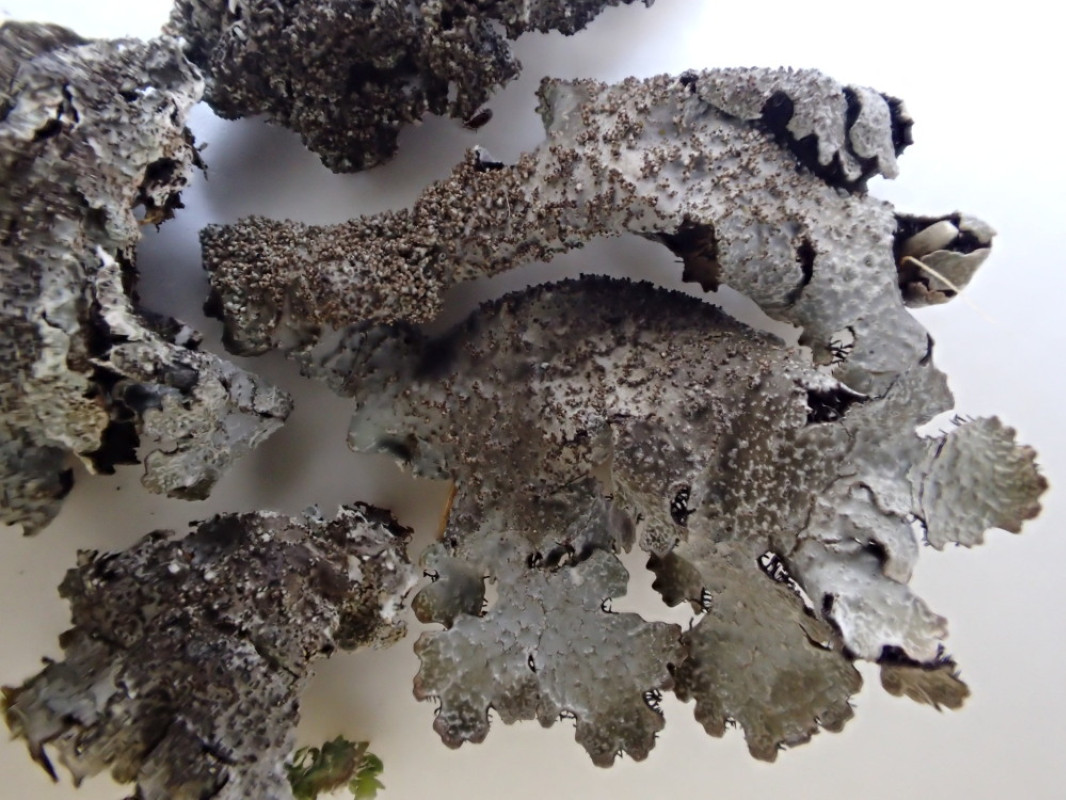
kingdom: Fungi
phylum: Ascomycota
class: Lecanoromycetes
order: Lecanorales
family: Parmeliaceae
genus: Parmelia
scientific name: Parmelia saxatilis
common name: farve-skållav
